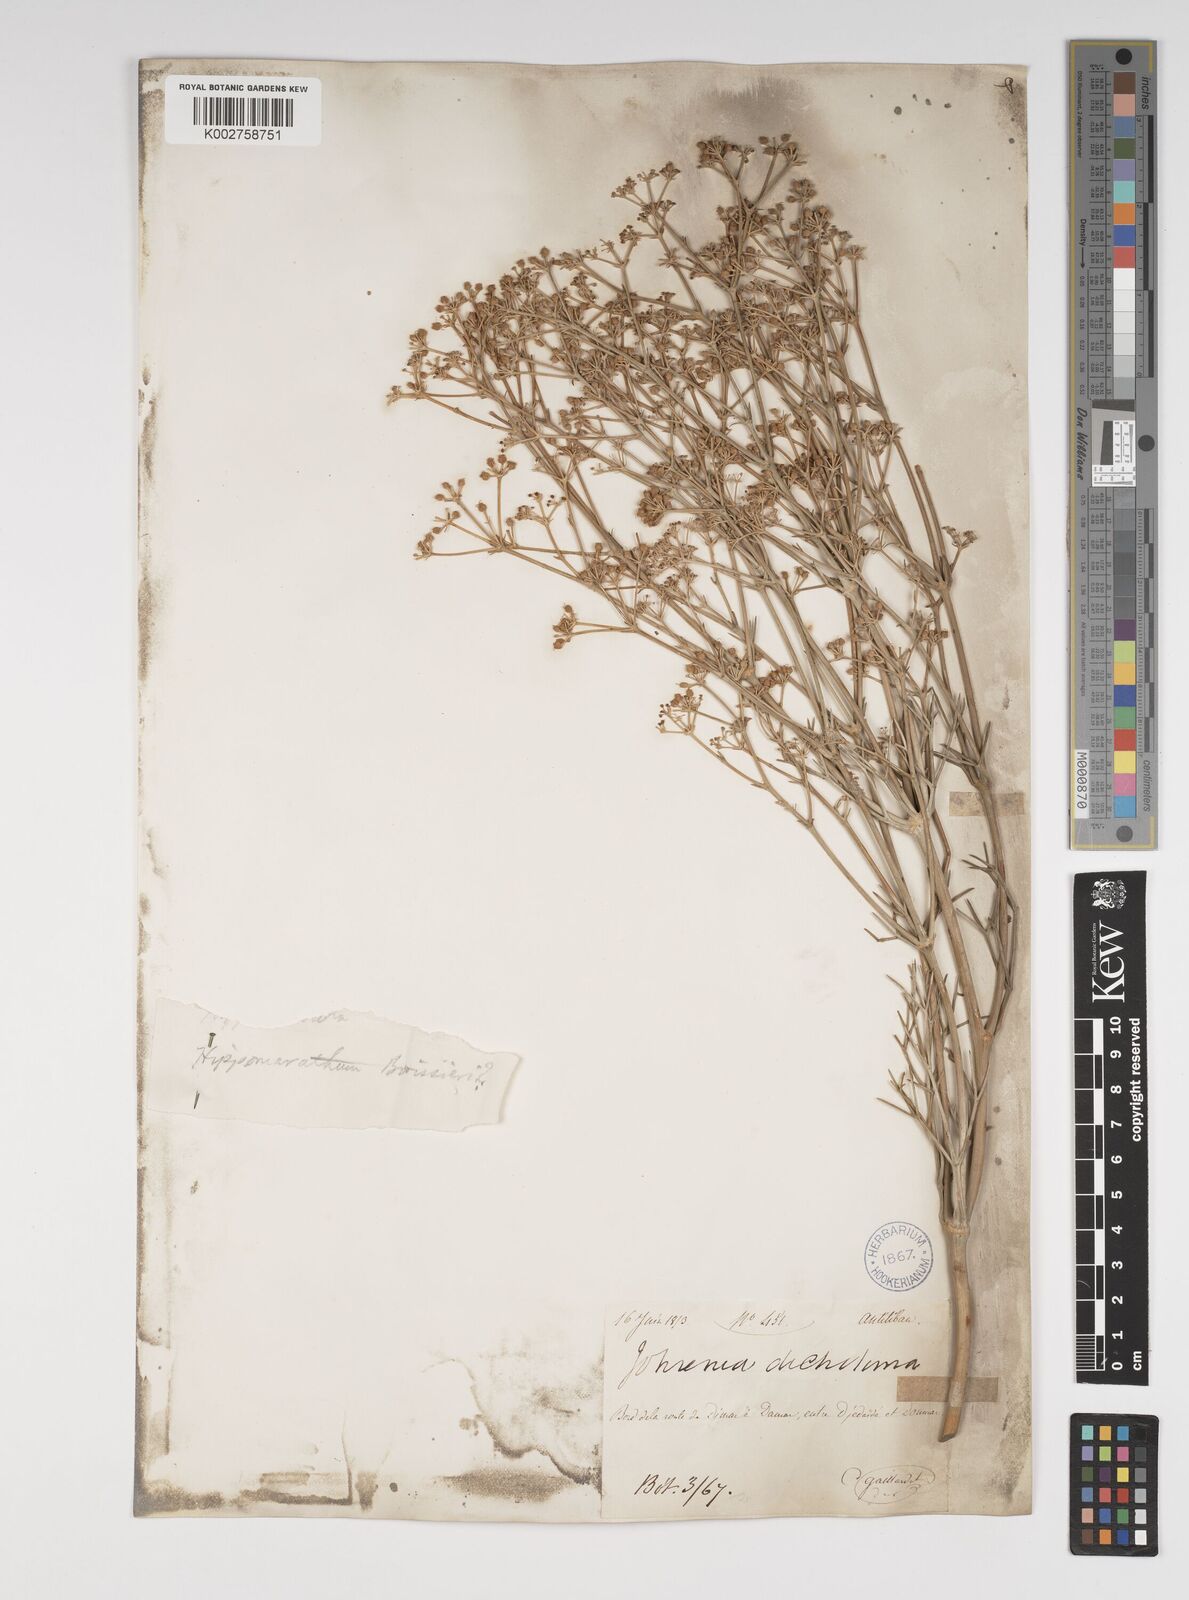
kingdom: Plantae
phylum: Tracheophyta
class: Magnoliopsida
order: Apiales
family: Apiaceae
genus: Cachrys
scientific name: Cachrys boissieri
